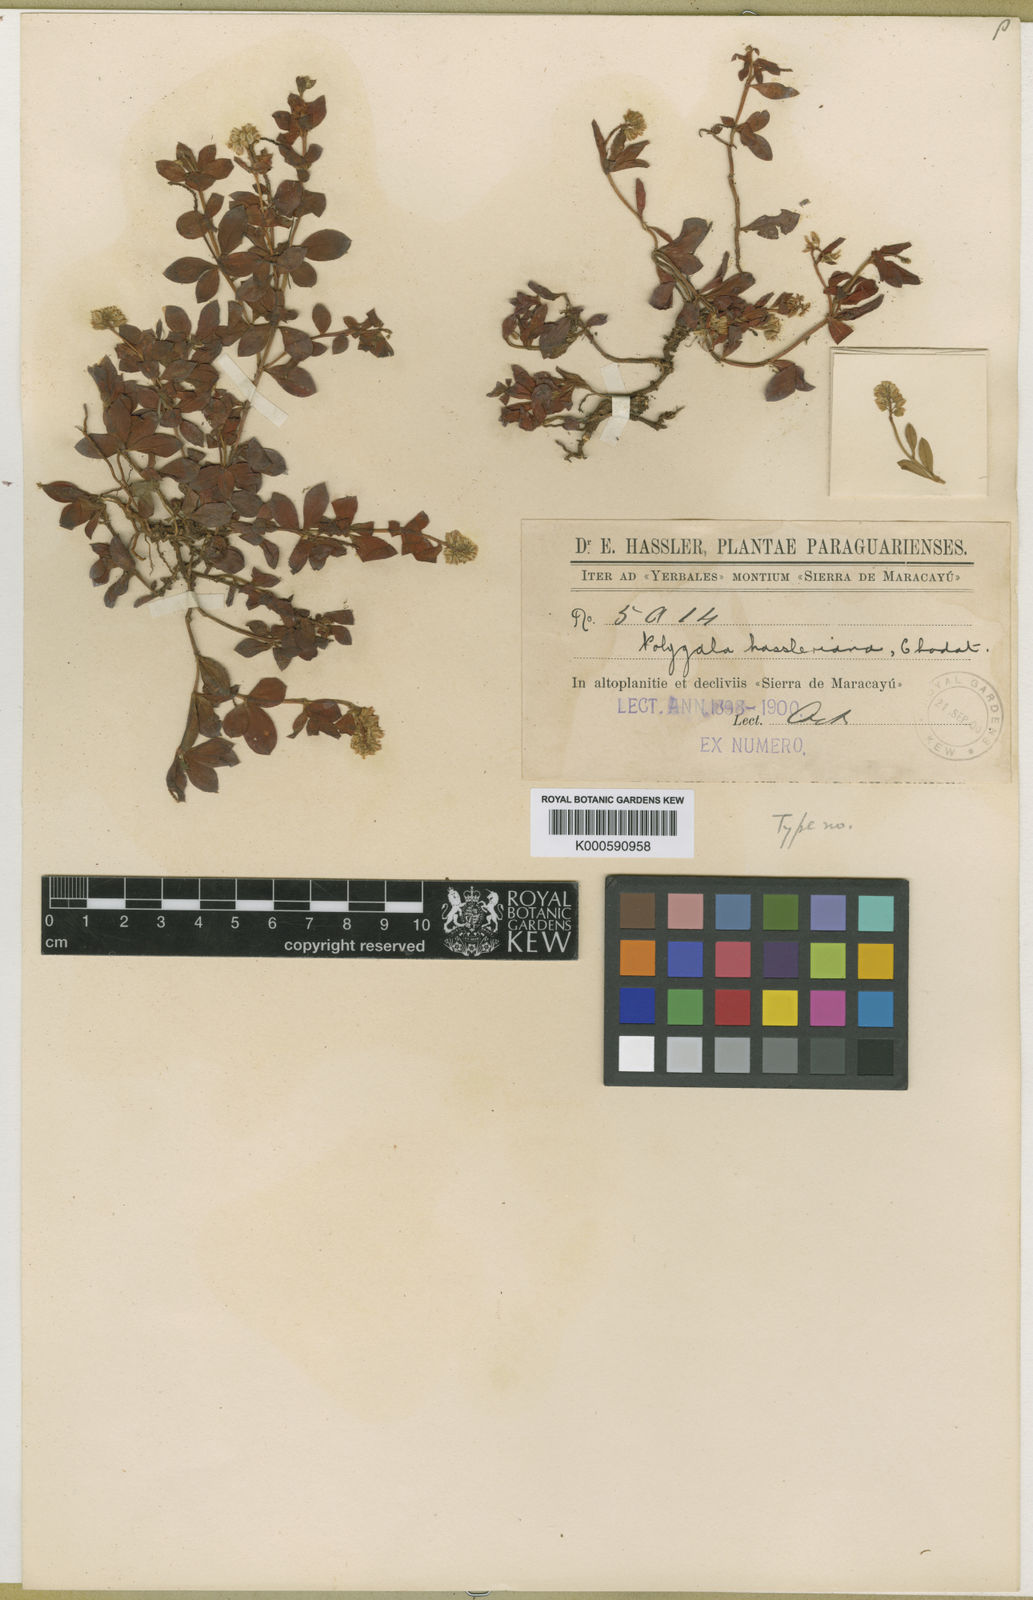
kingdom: Plantae
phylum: Tracheophyta
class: Magnoliopsida
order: Fabales
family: Polygalaceae
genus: Polygala
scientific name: Polygala punctata
